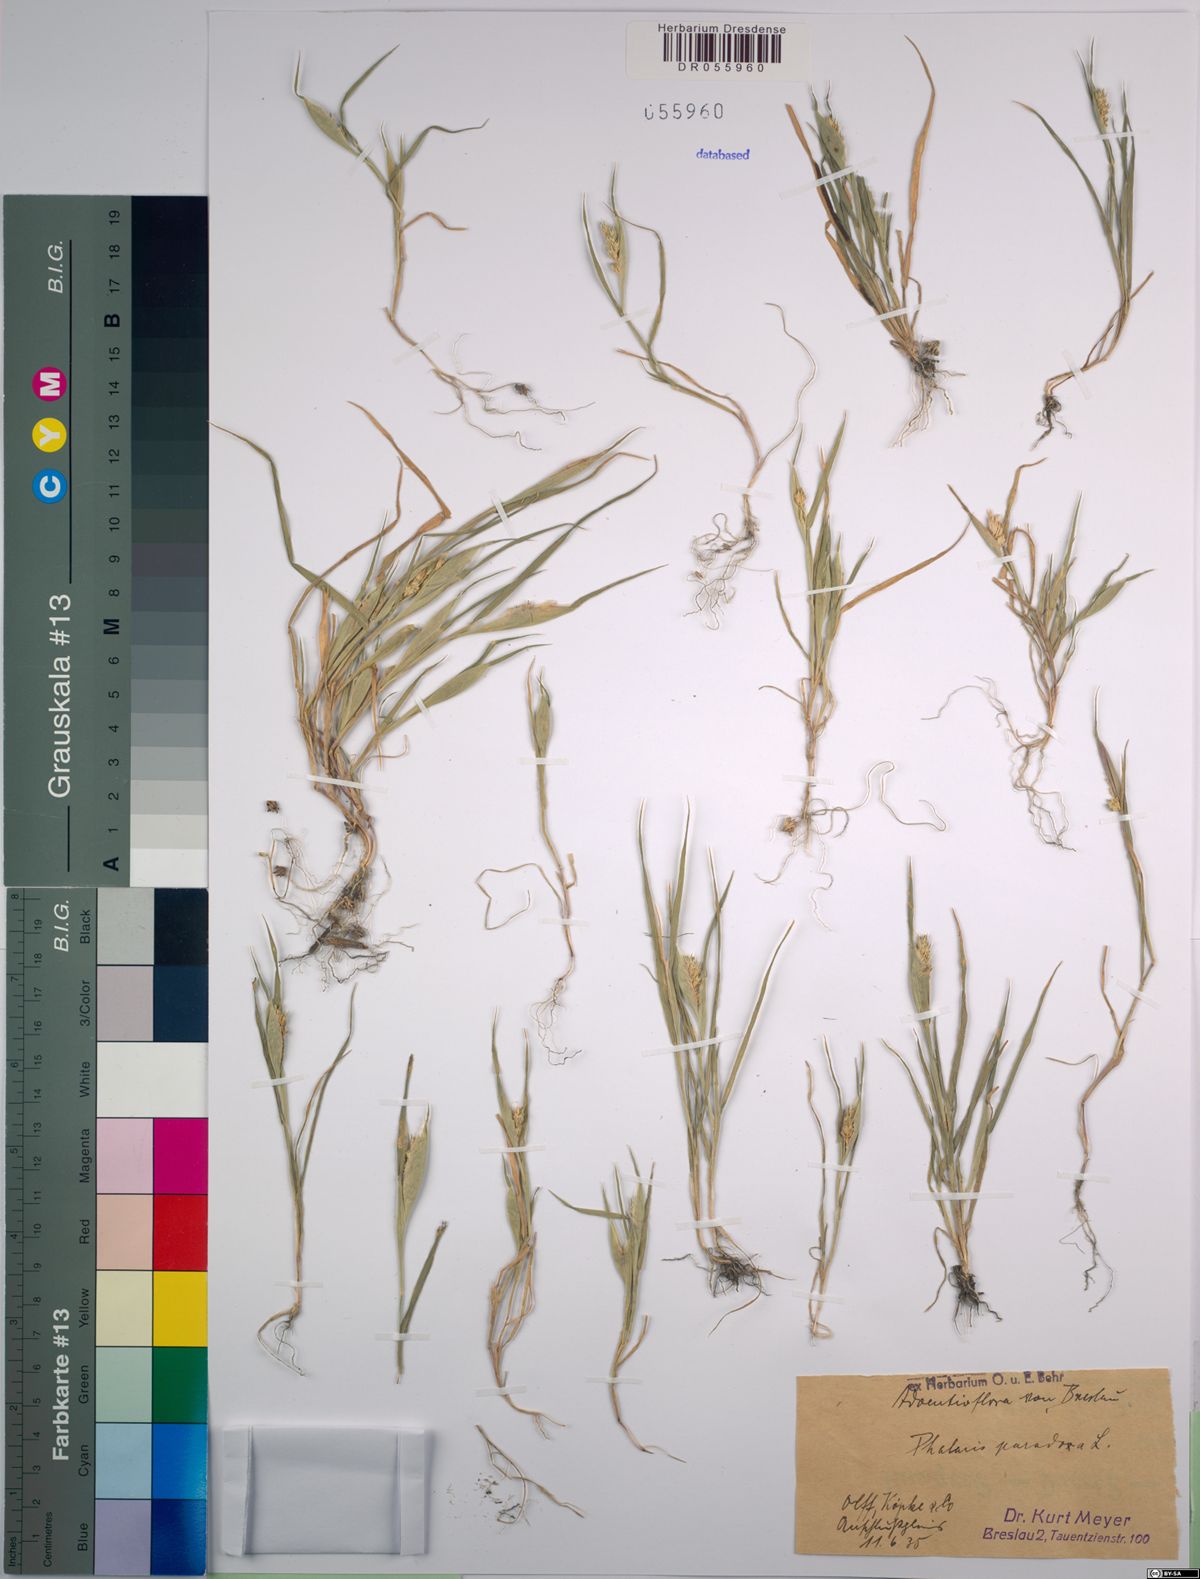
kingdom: Plantae
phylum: Tracheophyta
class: Liliopsida
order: Poales
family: Poaceae
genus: Phalaris
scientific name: Phalaris paradoxa
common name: Awned canary-grass
